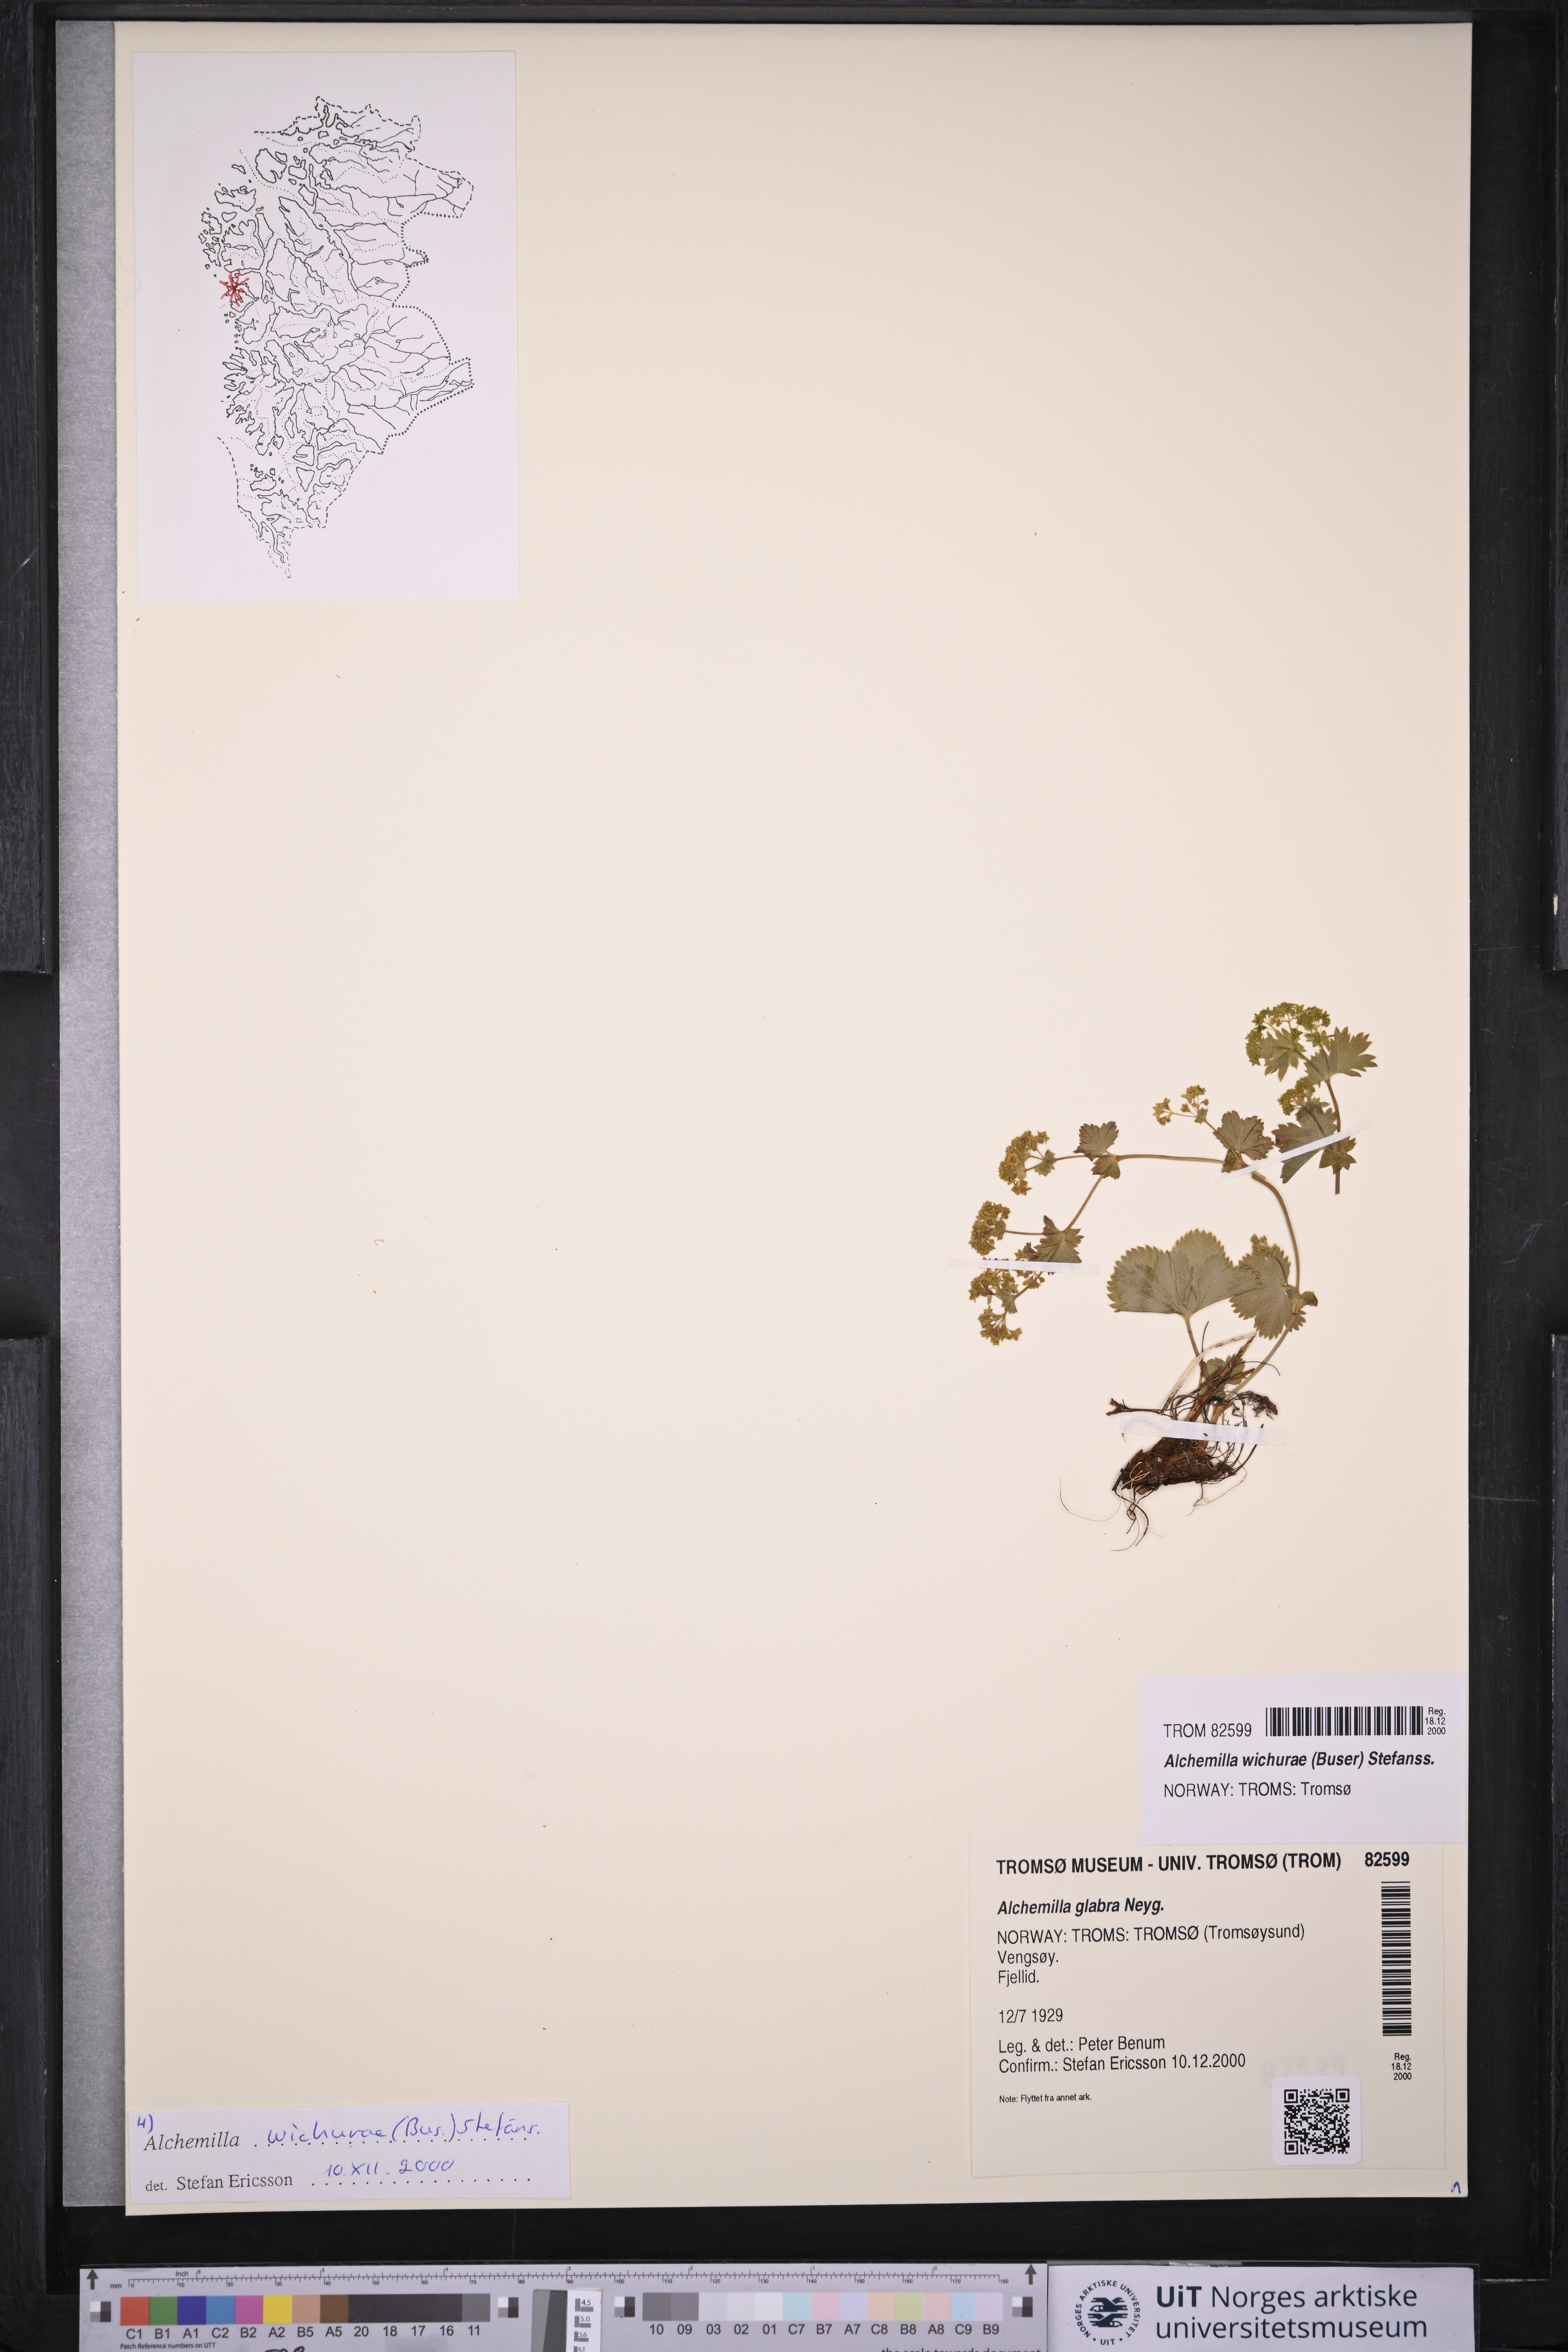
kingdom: Plantae
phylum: Tracheophyta
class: Magnoliopsida
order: Rosales
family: Rosaceae
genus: Alchemilla
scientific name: Alchemilla wichurae
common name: Rock lady's mantle
